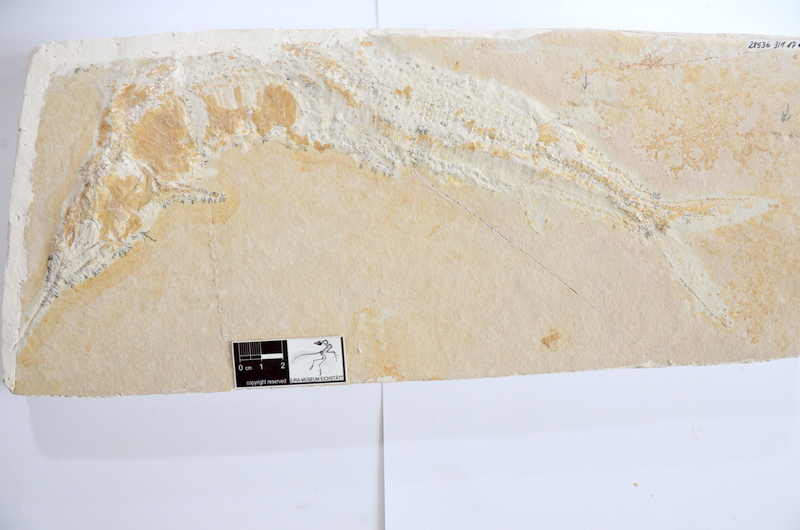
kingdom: Animalia
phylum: Chordata
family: Aspidorhynchidae
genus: Aspidorhynchus
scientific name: Aspidorhynchus acutirostris
